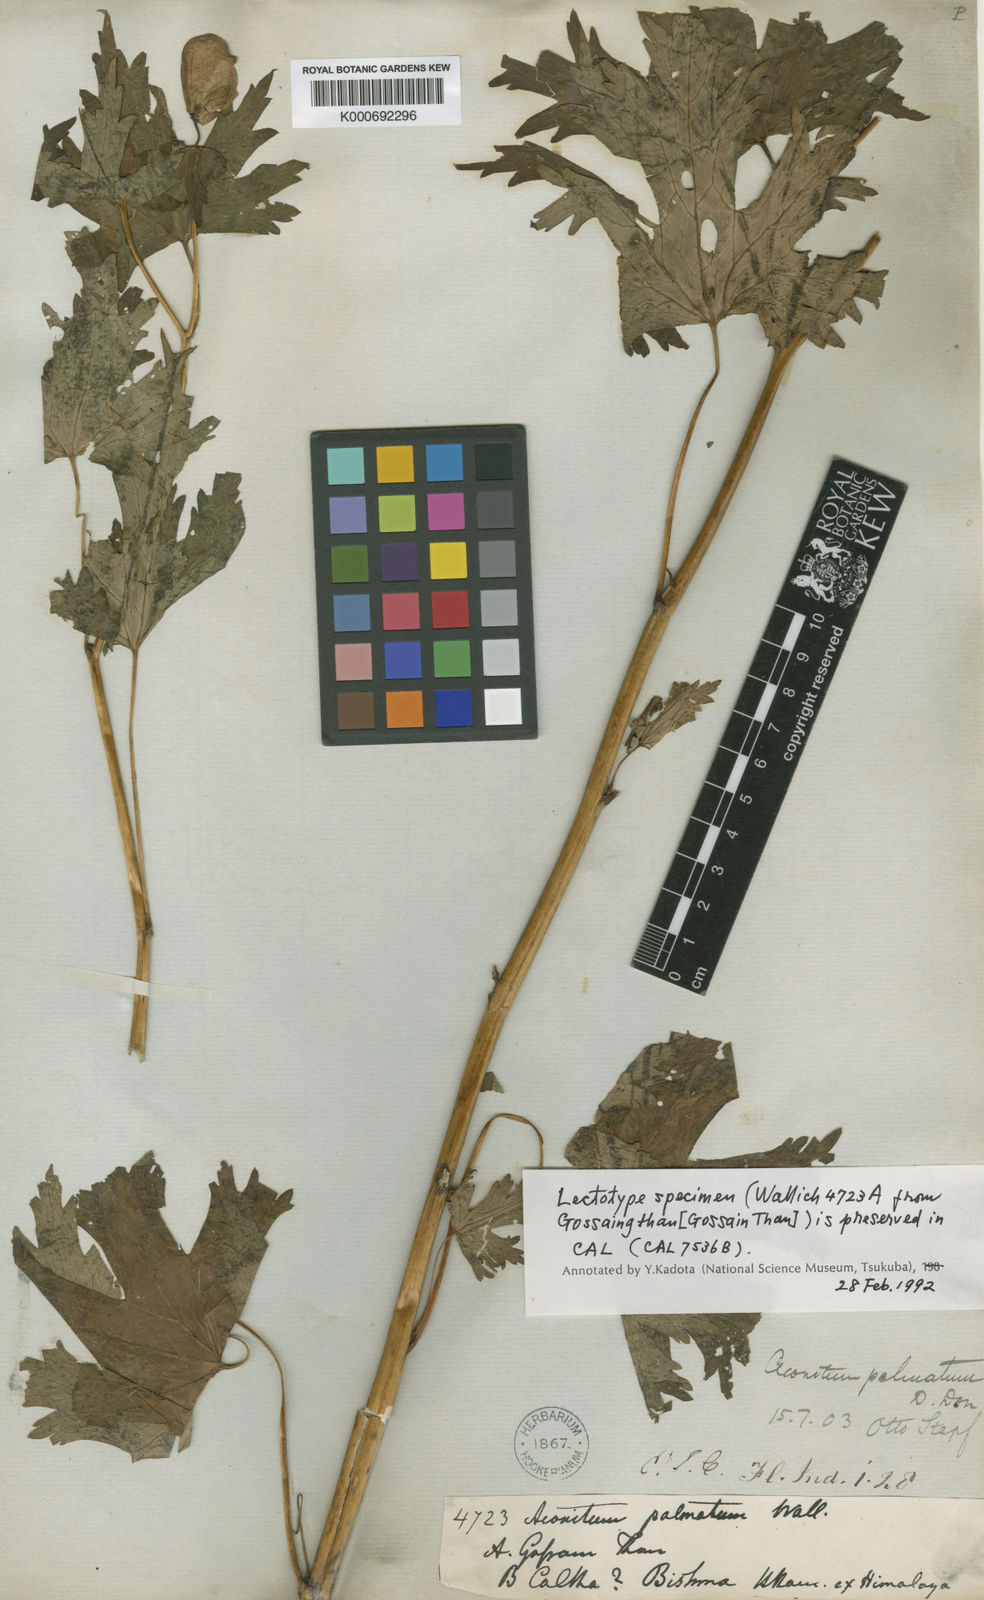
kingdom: Plantae
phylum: Tracheophyta
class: Magnoliopsida
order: Ranunculales
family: Ranunculaceae
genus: Aconitum
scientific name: Aconitum palmatum
